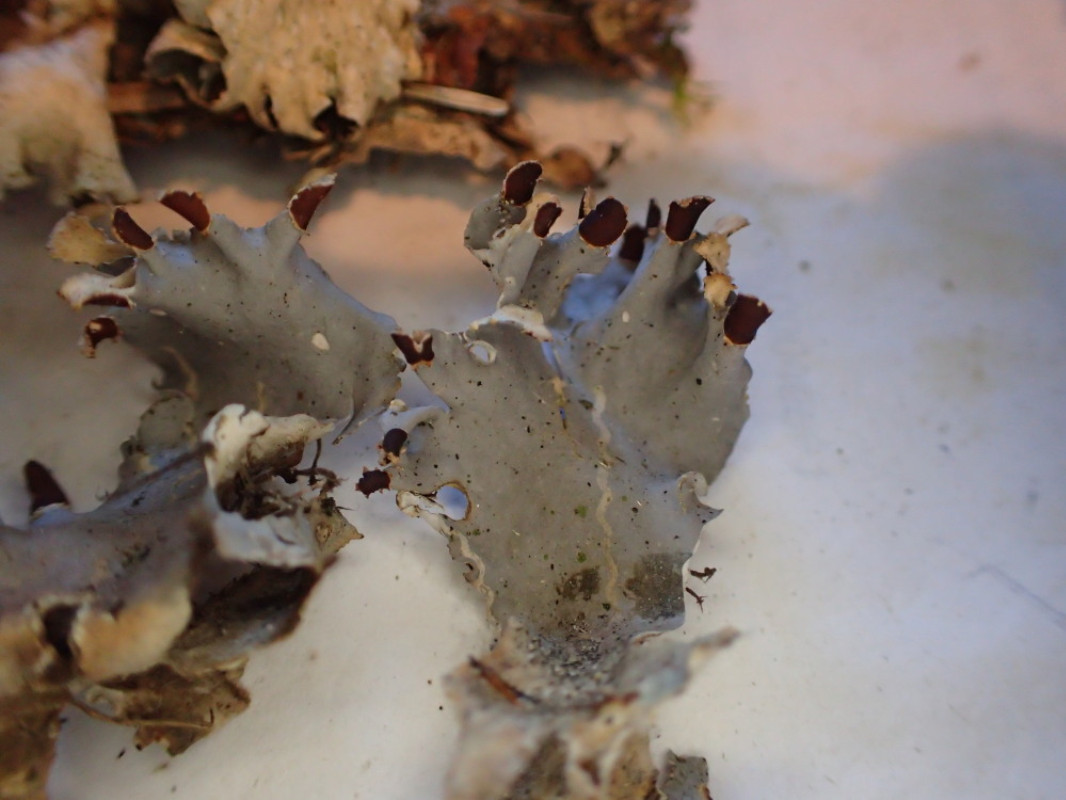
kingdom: Fungi
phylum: Ascomycota
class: Lecanoromycetes
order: Peltigerales
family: Peltigeraceae
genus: Peltigera
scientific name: Peltigera hymenina
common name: hinde-skjoldlav
